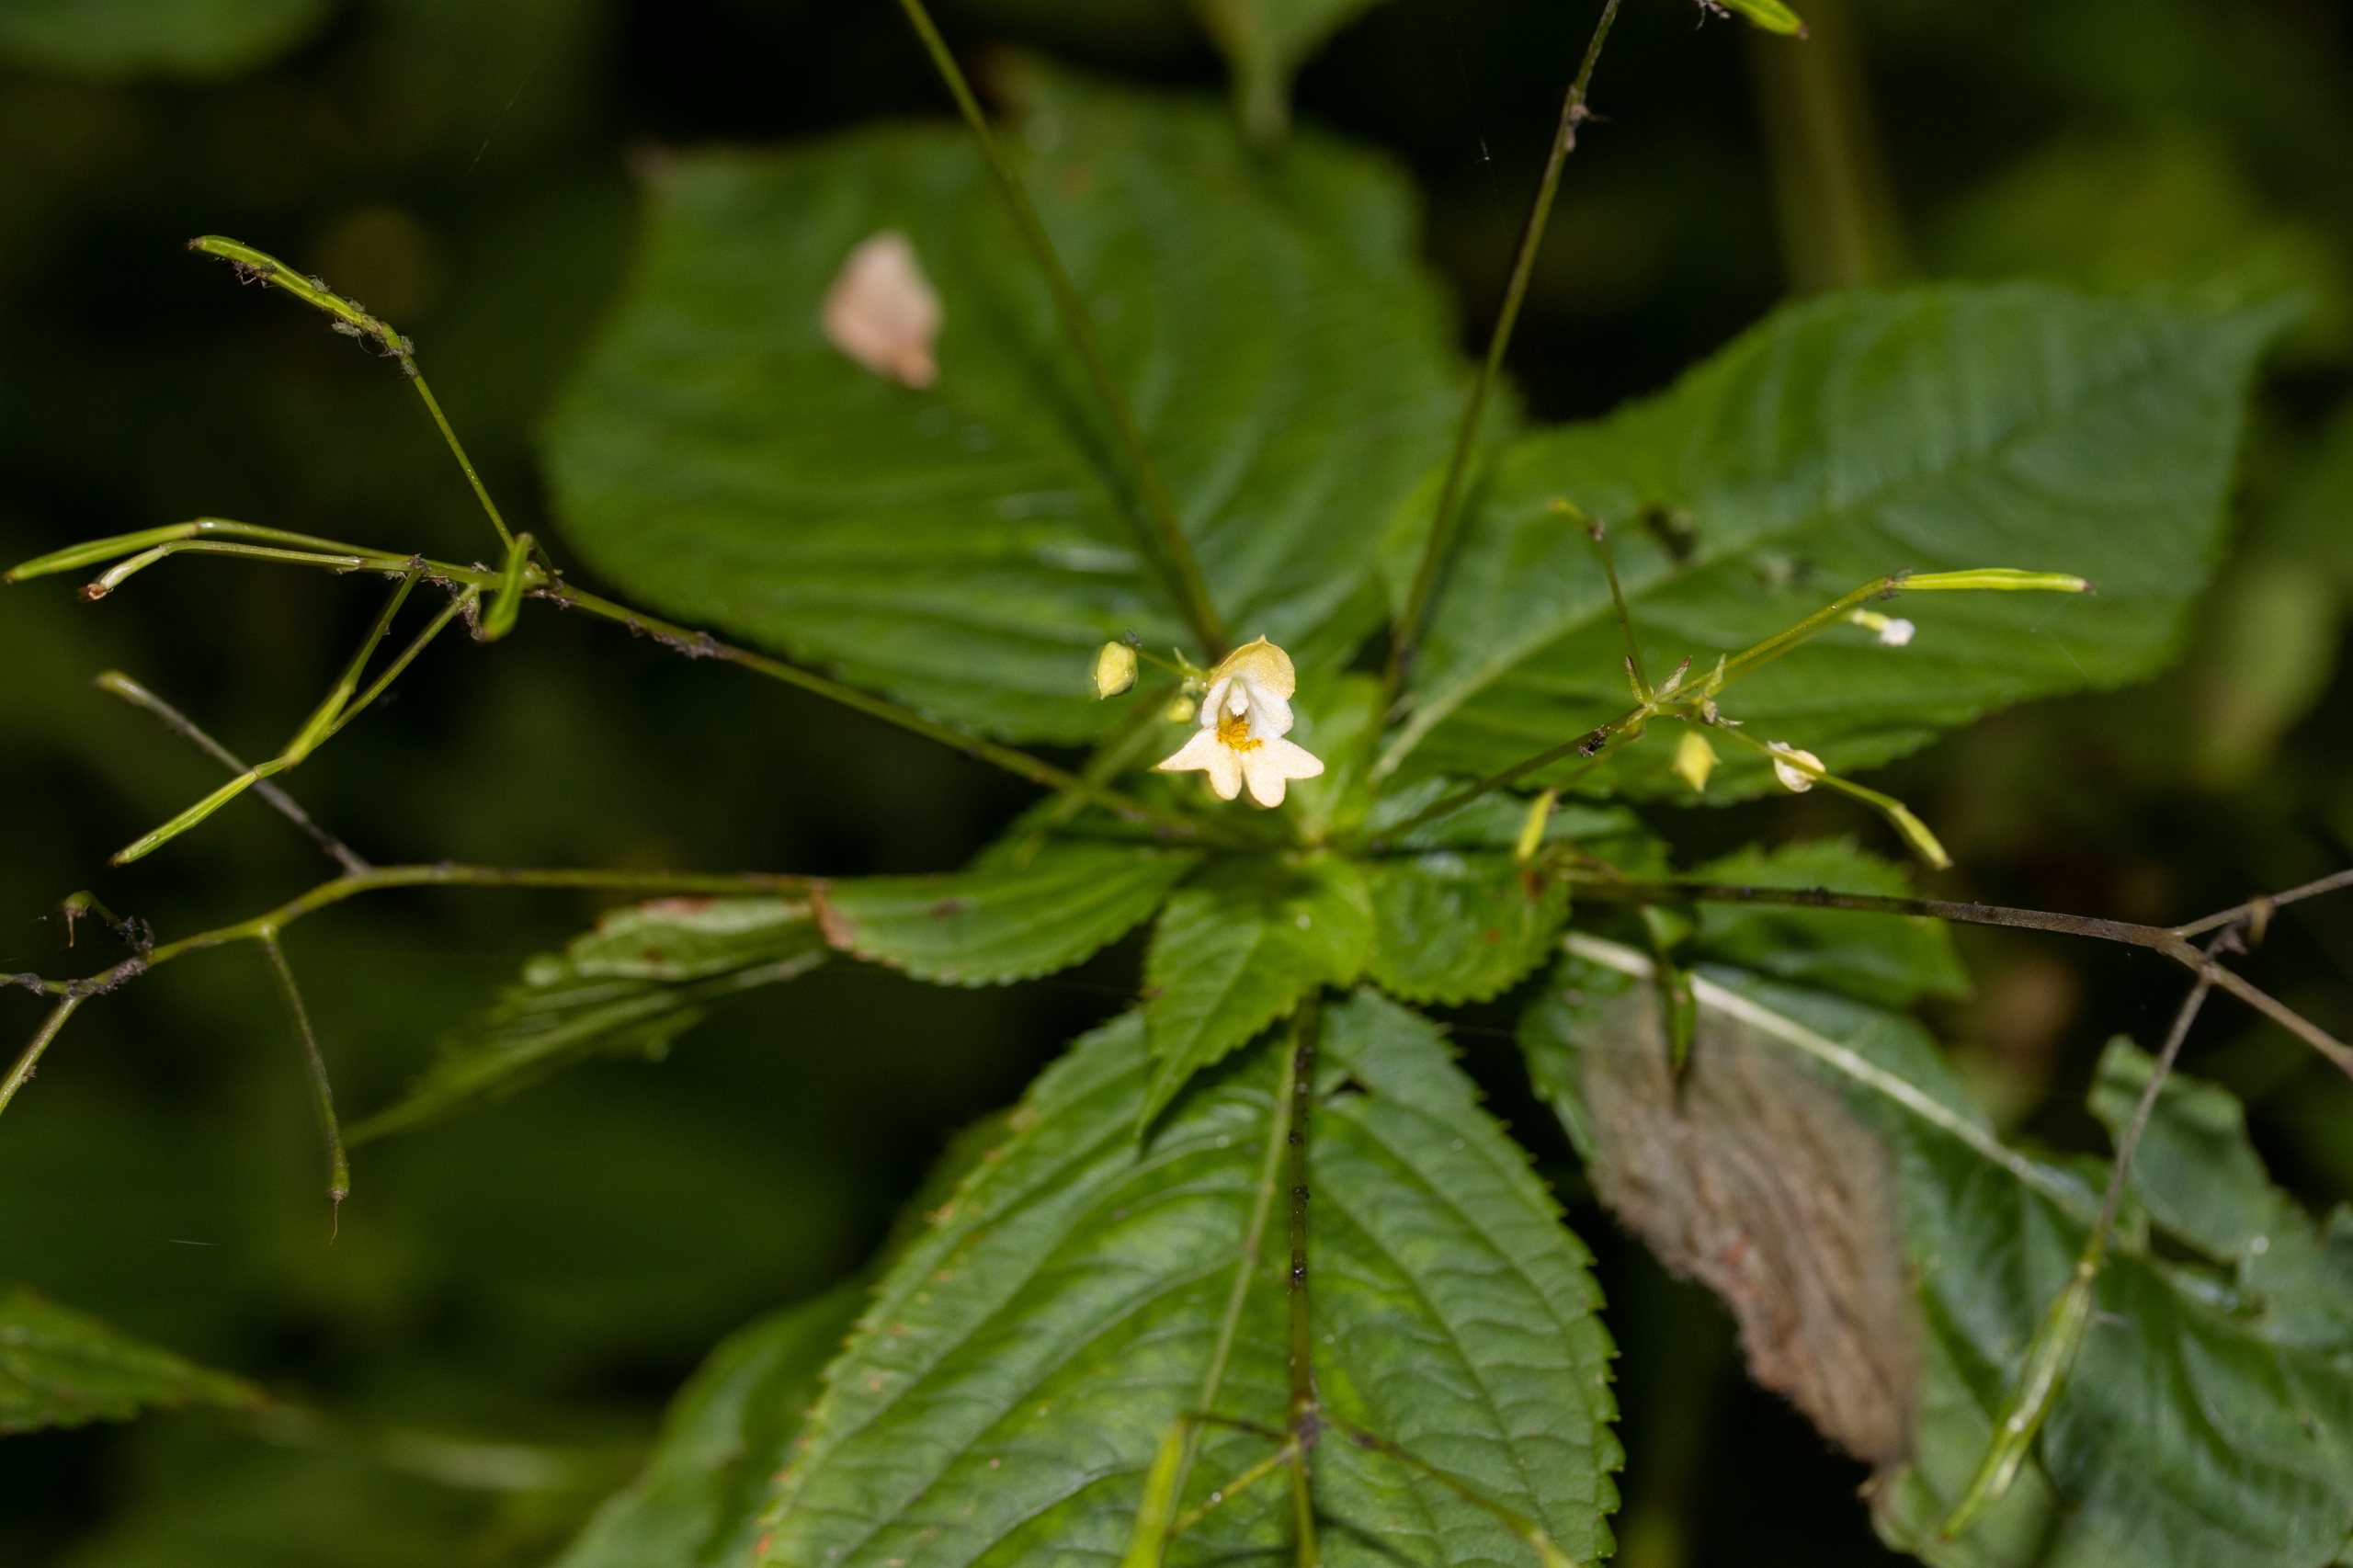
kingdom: Plantae
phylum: Tracheophyta
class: Magnoliopsida
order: Ericales
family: Balsaminaceae
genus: Impatiens
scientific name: Impatiens parviflora
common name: Småblomstret balsamin
